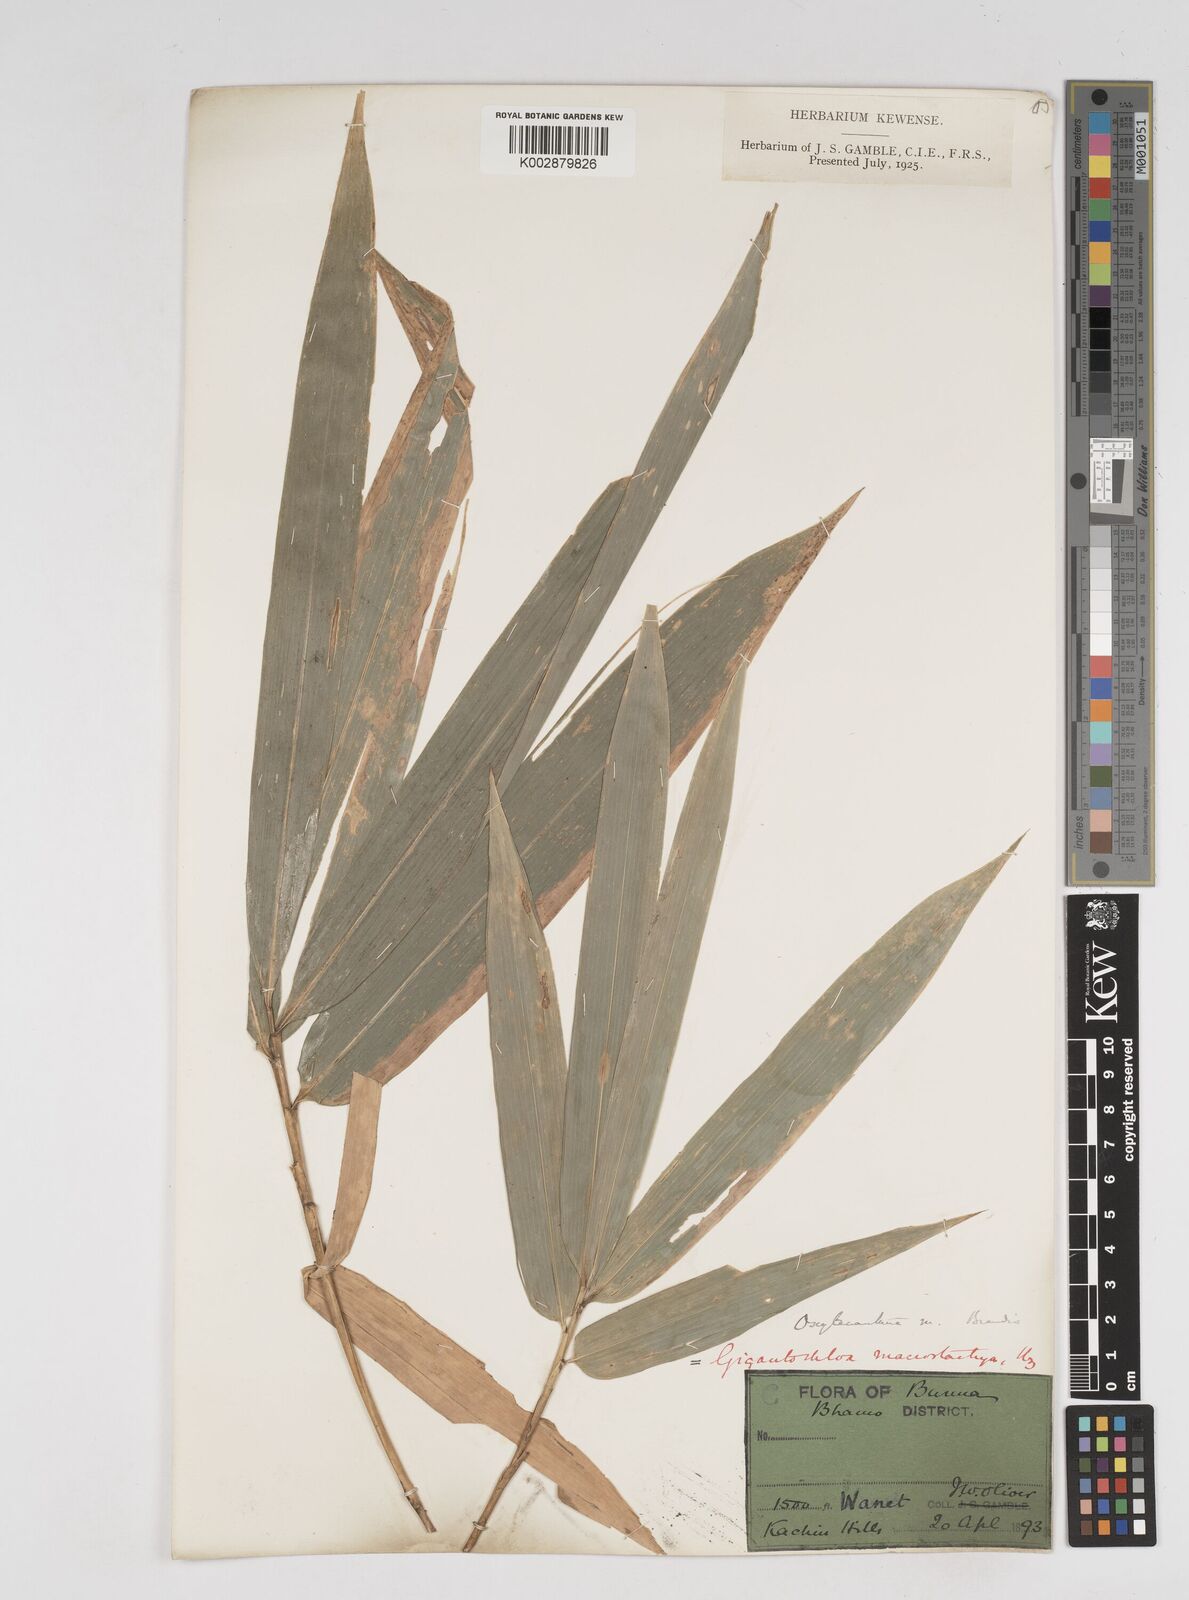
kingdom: Plantae
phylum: Tracheophyta
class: Liliopsida
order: Poales
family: Poaceae
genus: Gigantochloa
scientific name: Gigantochloa macrostachya
